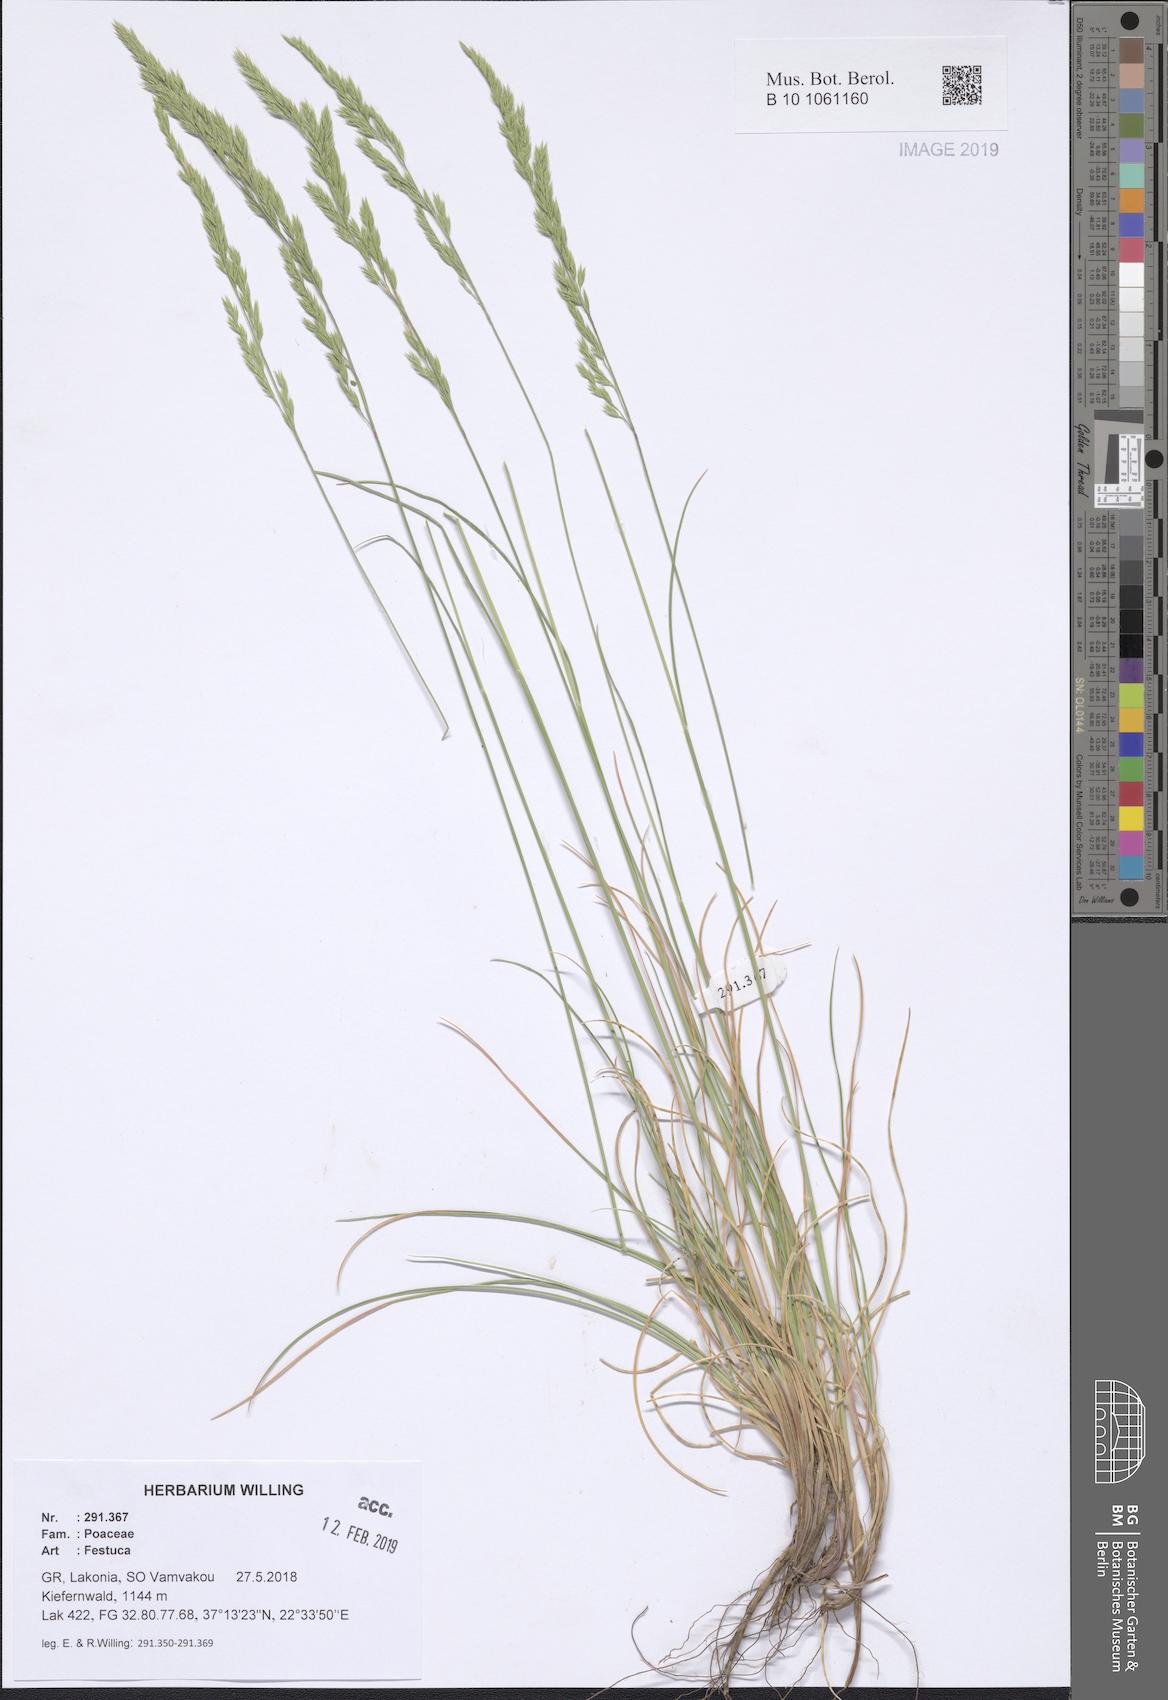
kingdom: Plantae
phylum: Tracheophyta
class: Liliopsida
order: Poales
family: Poaceae
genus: Festuca
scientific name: Festuca
